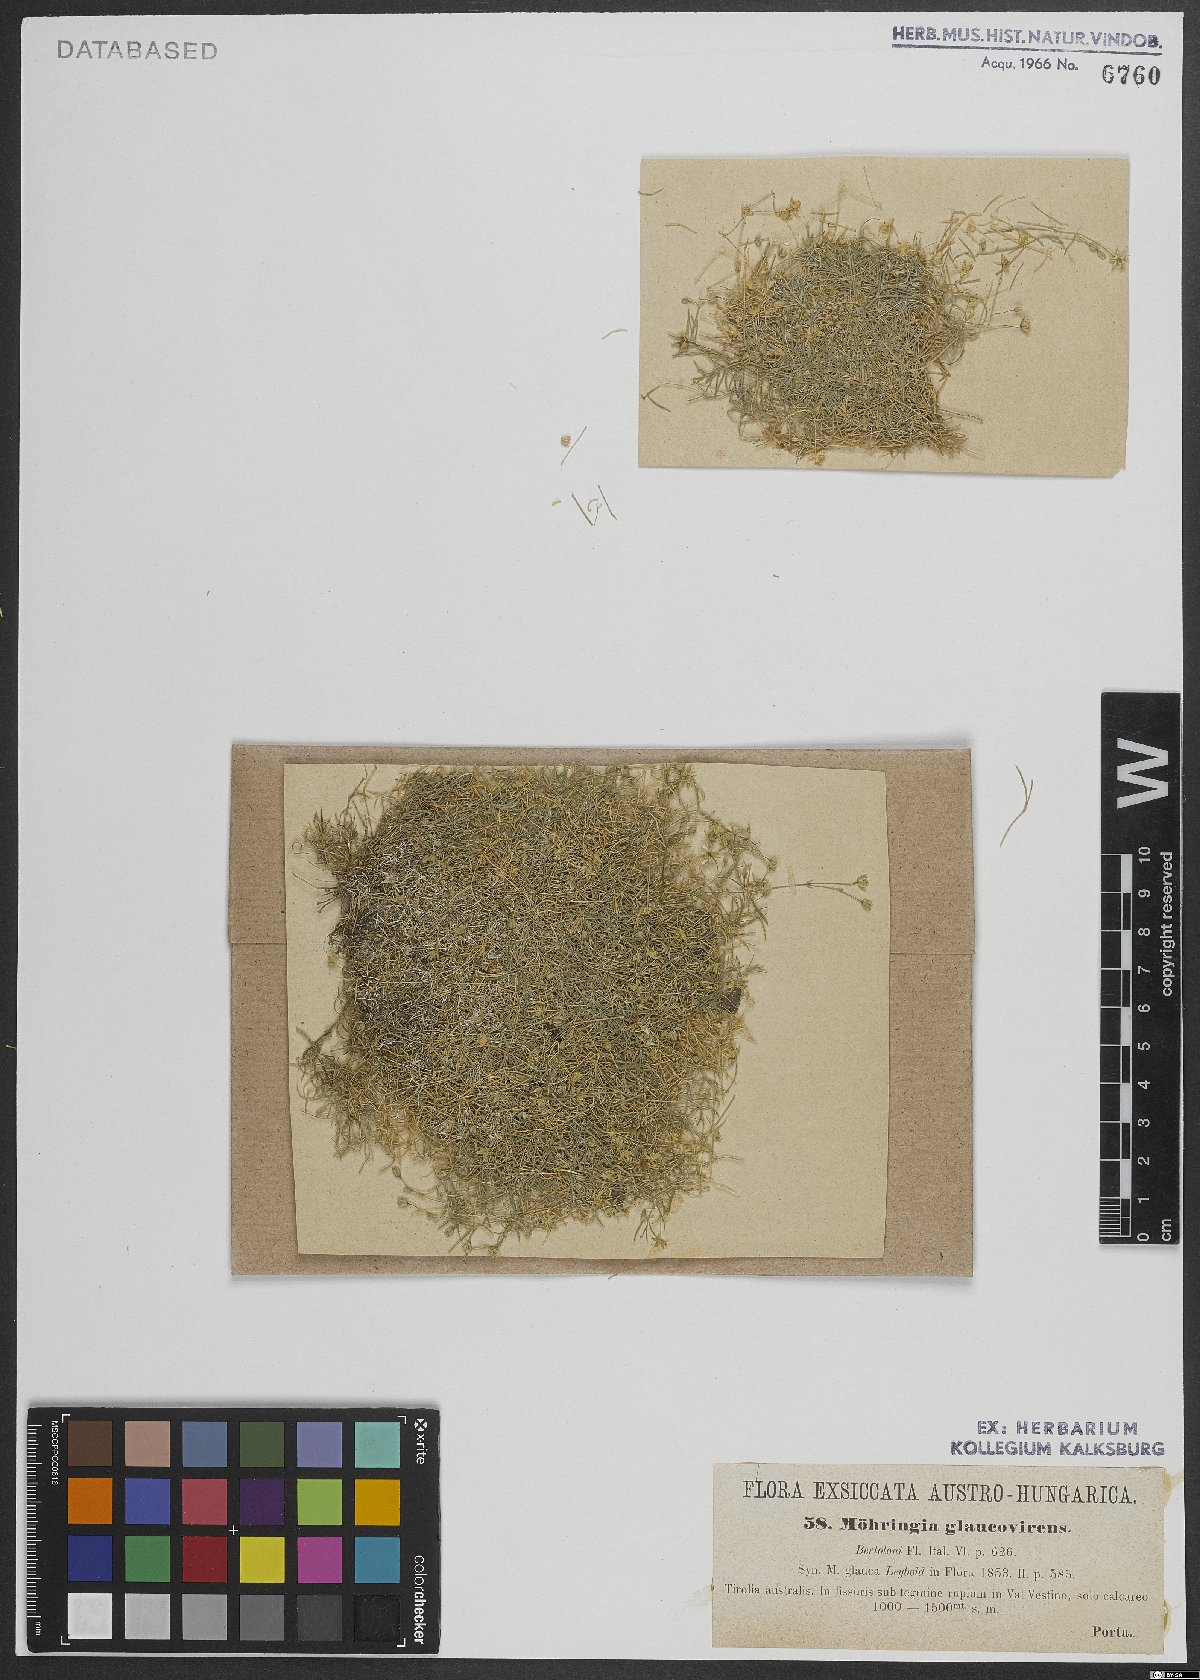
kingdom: Plantae
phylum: Tracheophyta
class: Magnoliopsida
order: Caryophyllales
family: Caryophyllaceae
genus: Moehringia
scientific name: Moehringia glaucovirens
